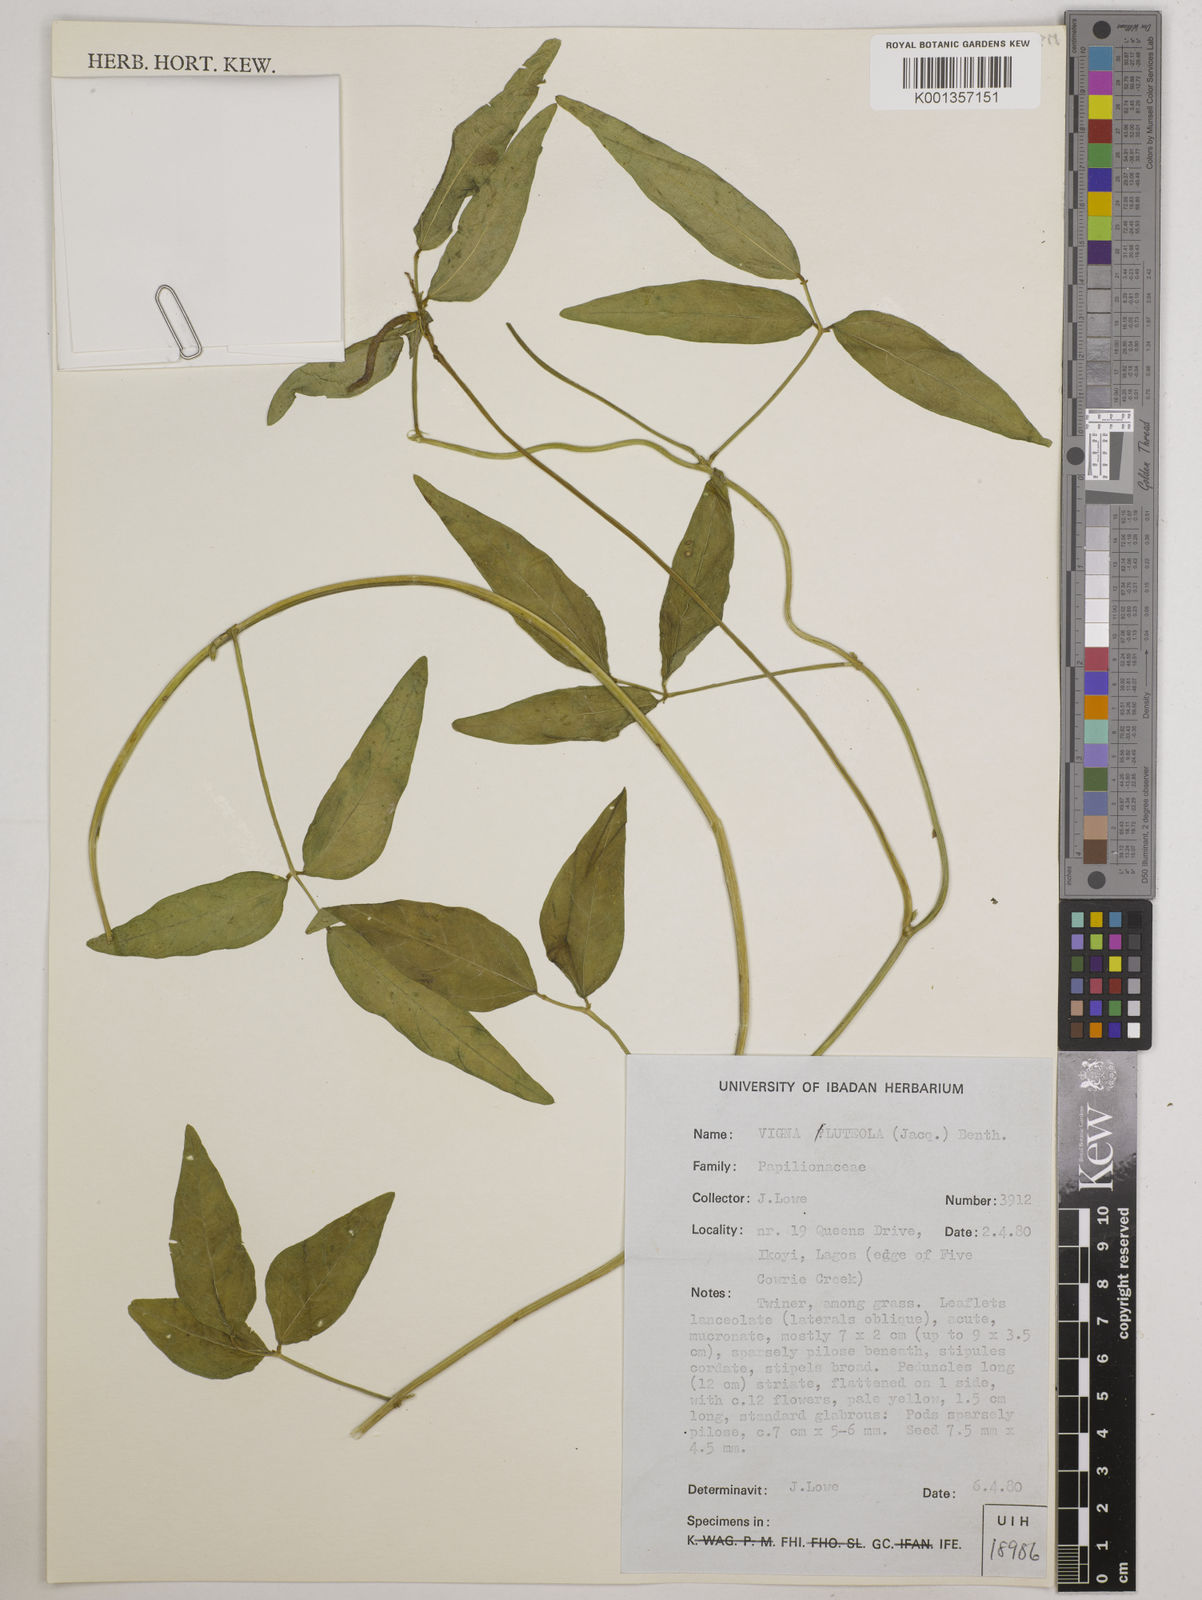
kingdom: Plantae
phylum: Tracheophyta
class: Magnoliopsida
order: Fabales
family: Fabaceae
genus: Vigna
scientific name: Vigna luteola
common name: Hairypod cowpea
